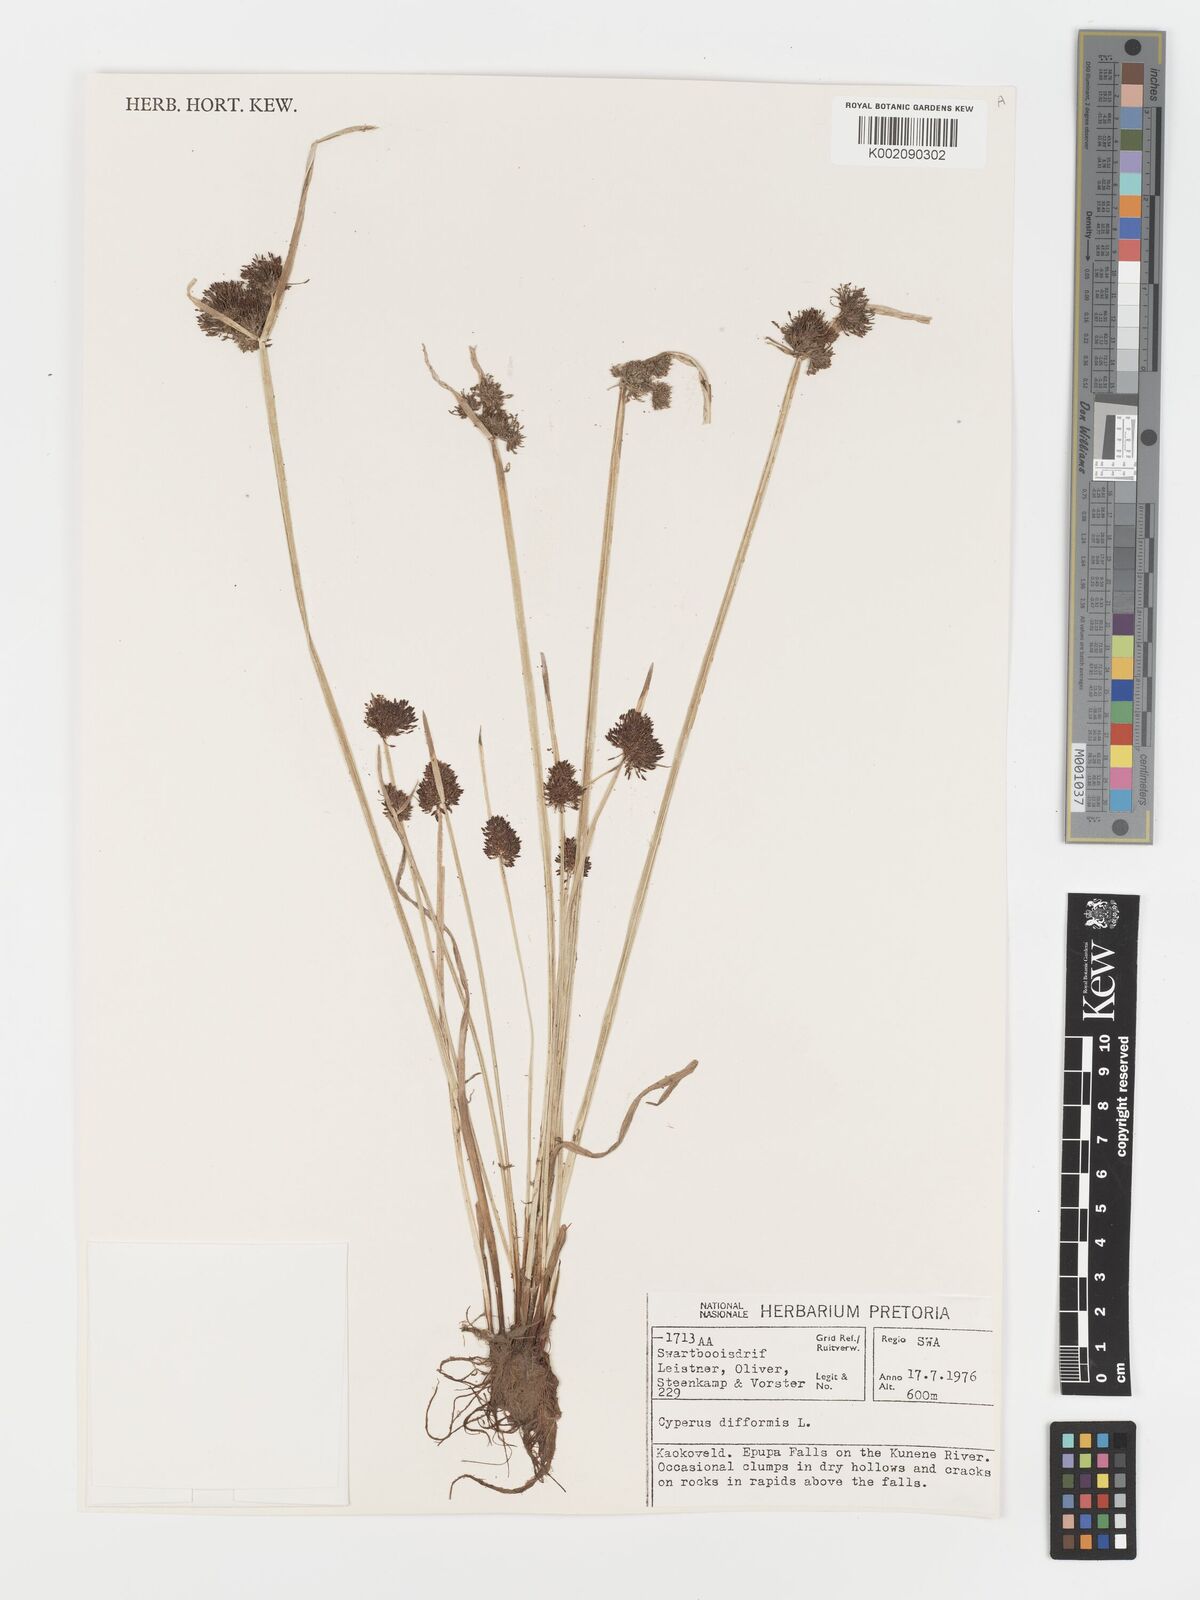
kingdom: Plantae
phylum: Tracheophyta
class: Liliopsida
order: Poales
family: Cyperaceae
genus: Cyperus
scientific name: Cyperus difformis
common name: Variable flatsedge
